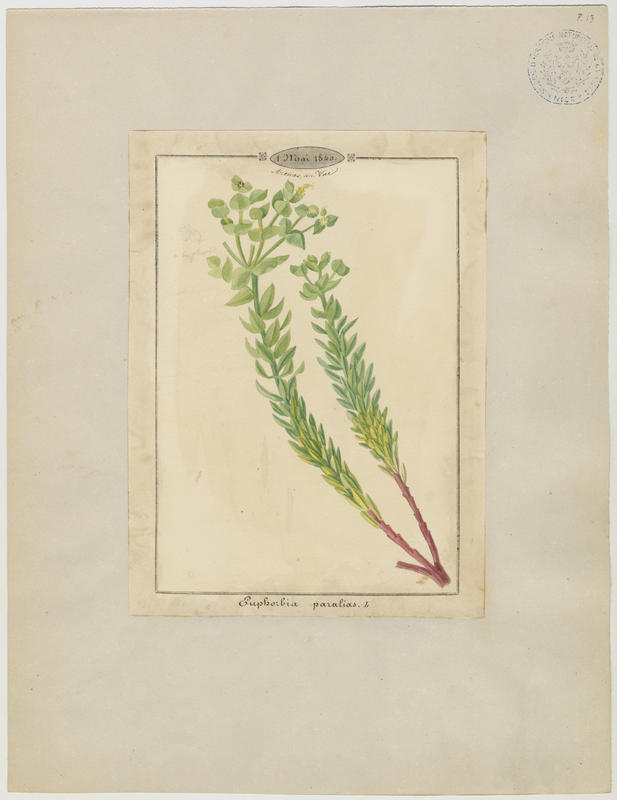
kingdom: Plantae
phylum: Tracheophyta
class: Magnoliopsida
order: Malpighiales
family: Euphorbiaceae
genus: Euphorbia
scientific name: Euphorbia paralias
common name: Sea spurge
